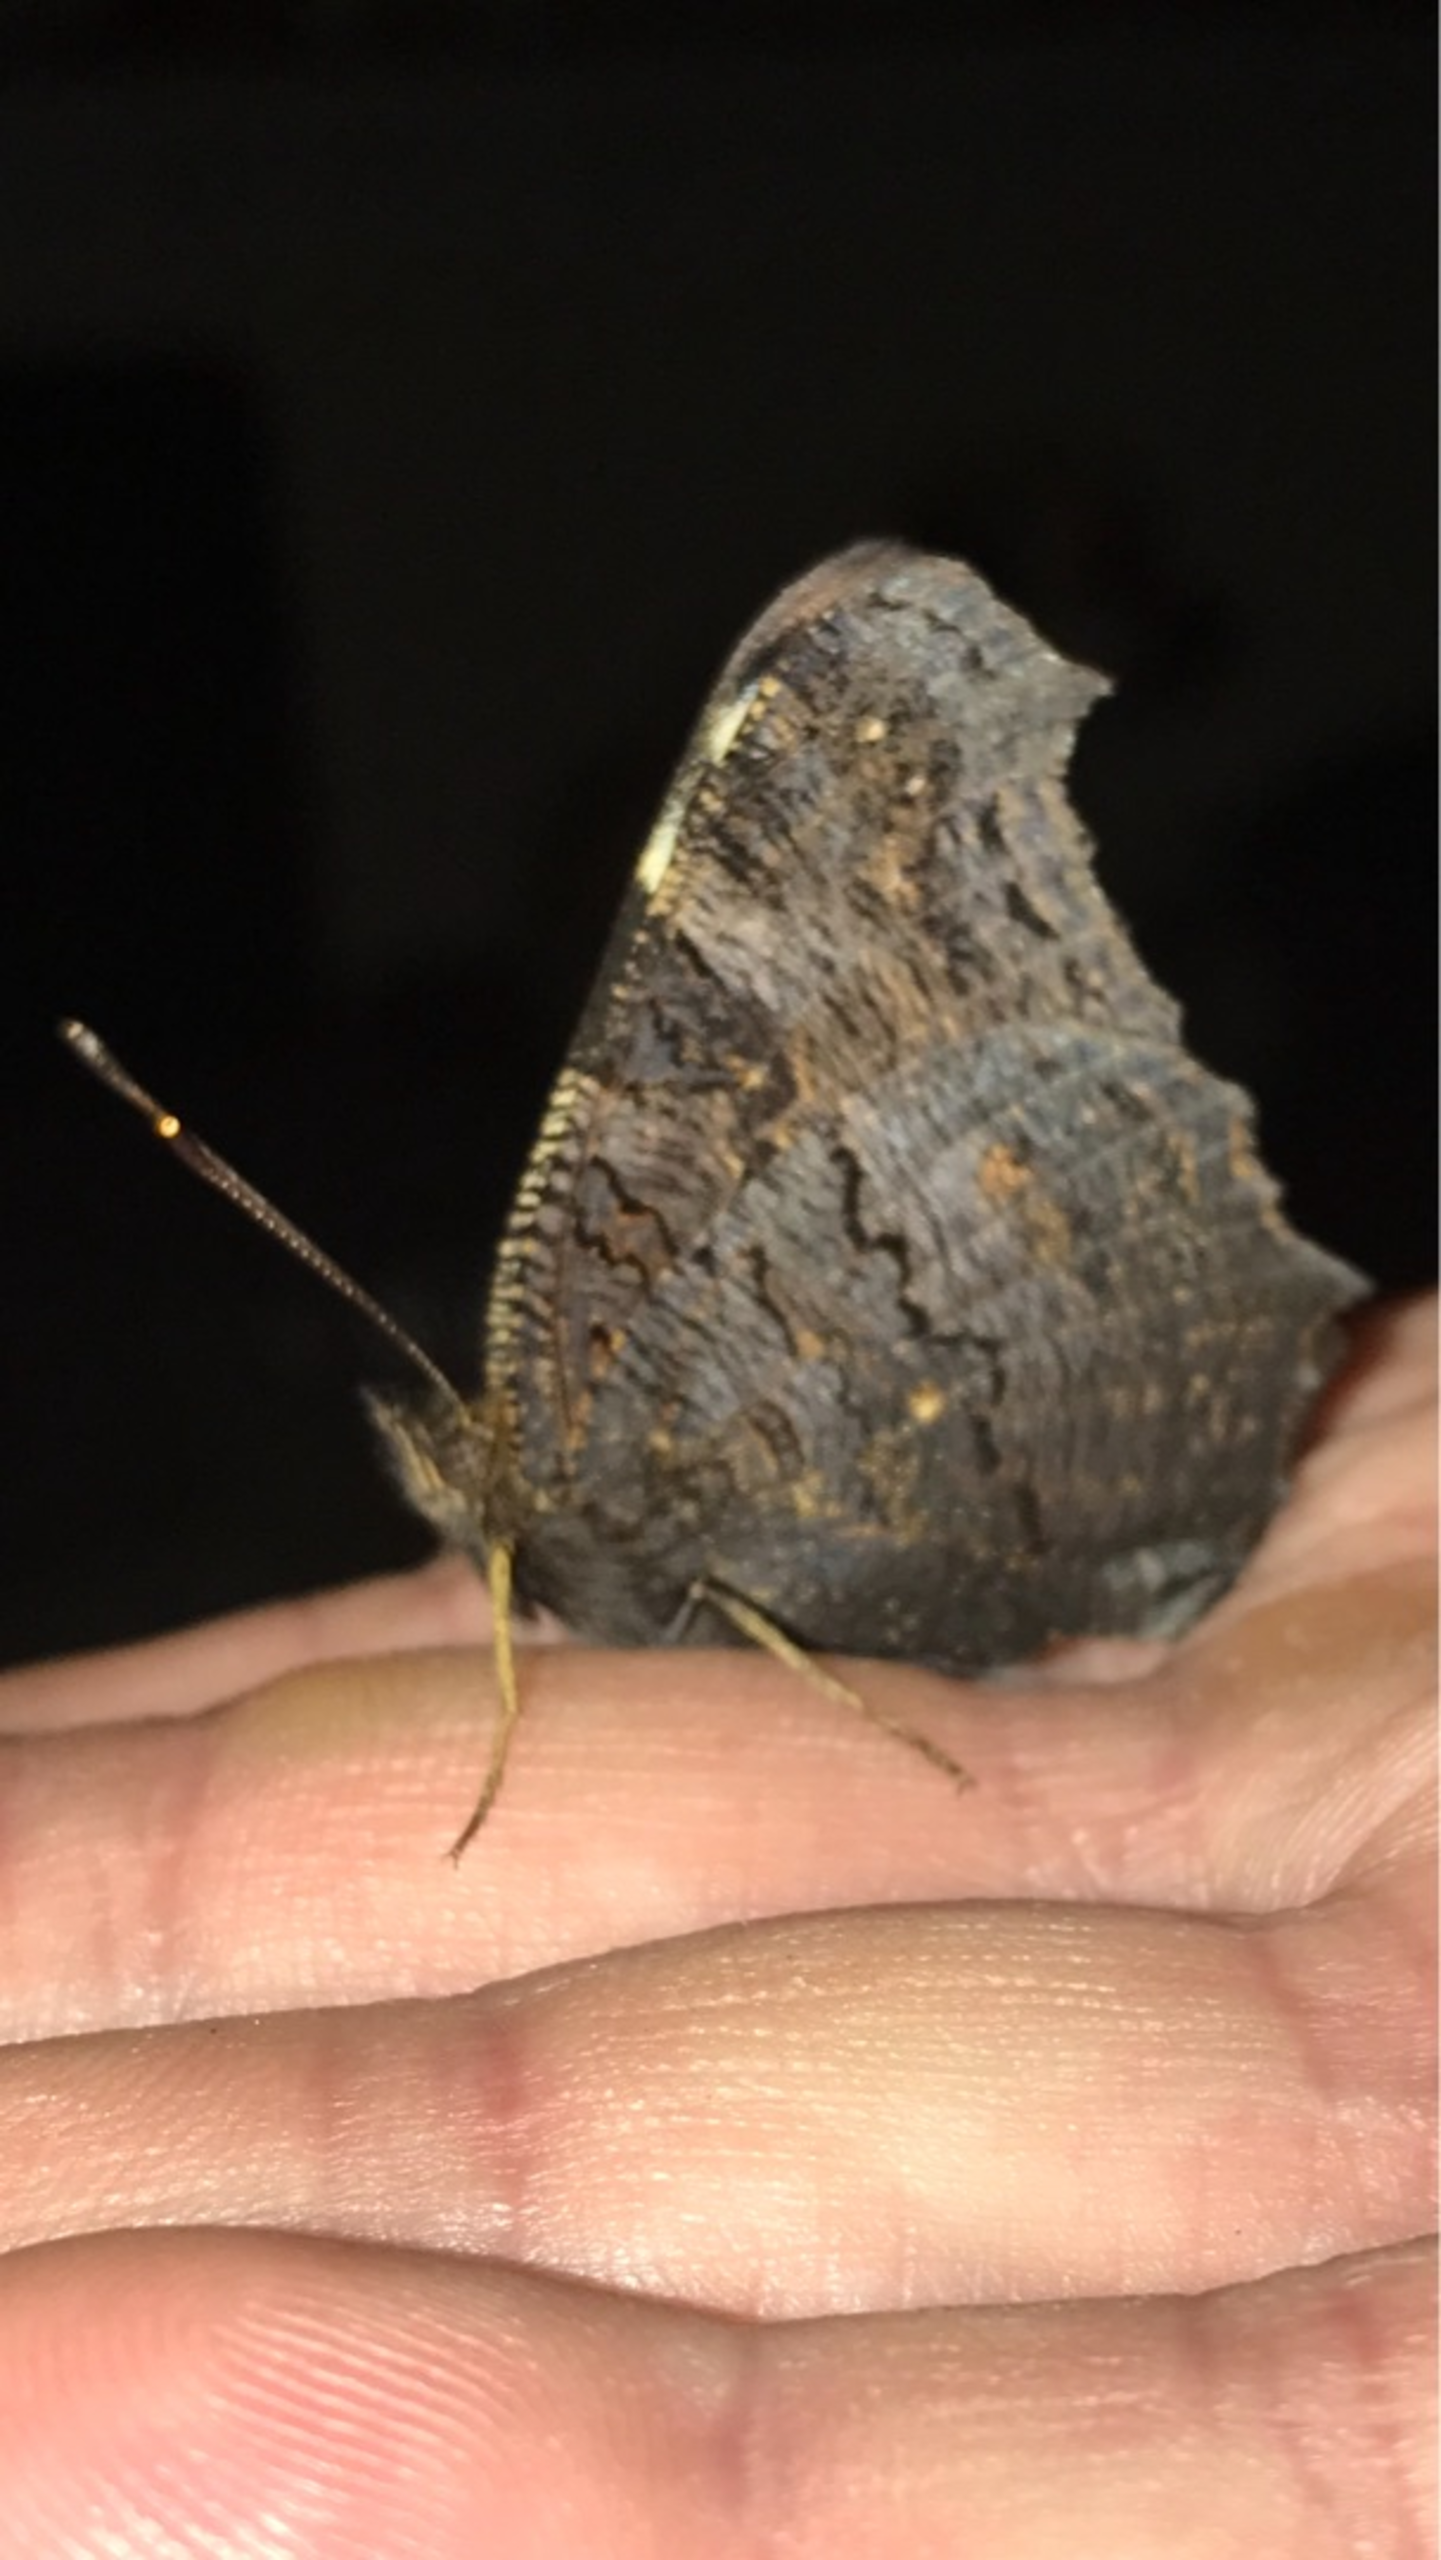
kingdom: Animalia
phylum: Arthropoda
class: Insecta
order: Lepidoptera
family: Nymphalidae
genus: Aglais
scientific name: Aglais io
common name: Dagpåfugleøje
